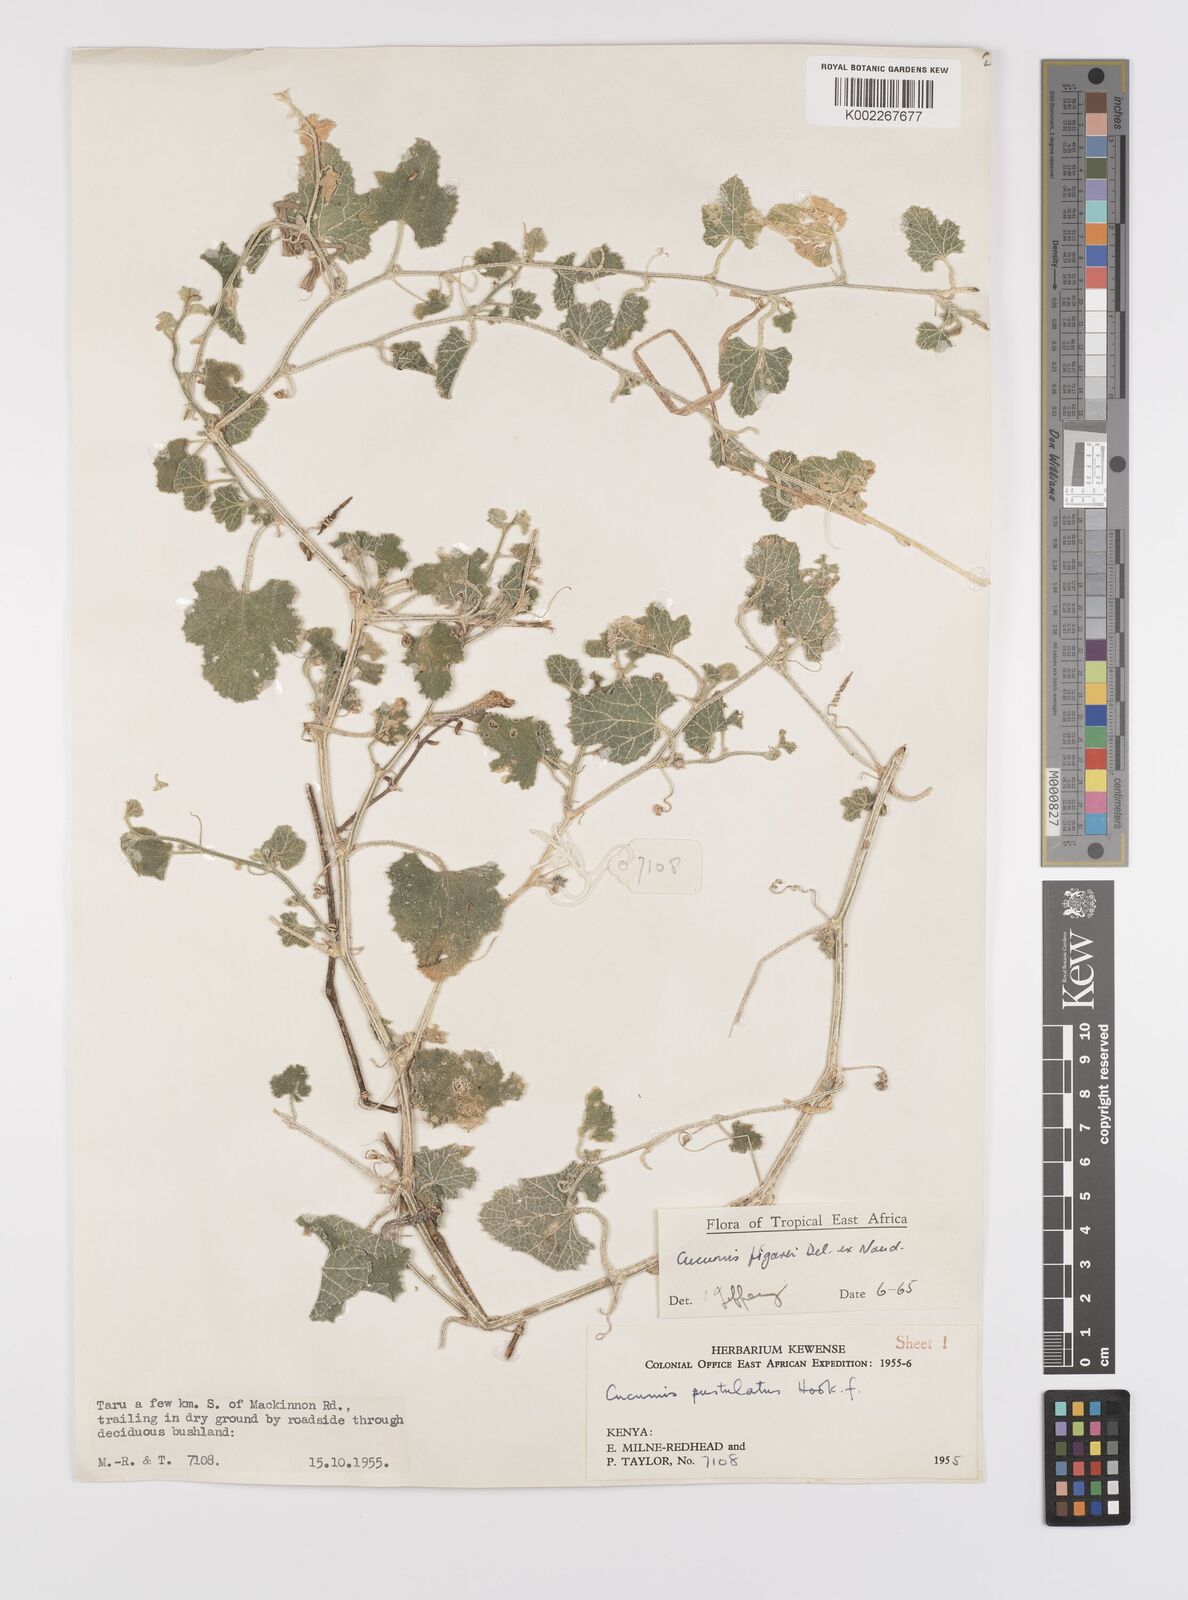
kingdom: Plantae
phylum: Tracheophyta
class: Magnoliopsida
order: Cucurbitales
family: Cucurbitaceae
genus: Cucumis
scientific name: Cucumis
